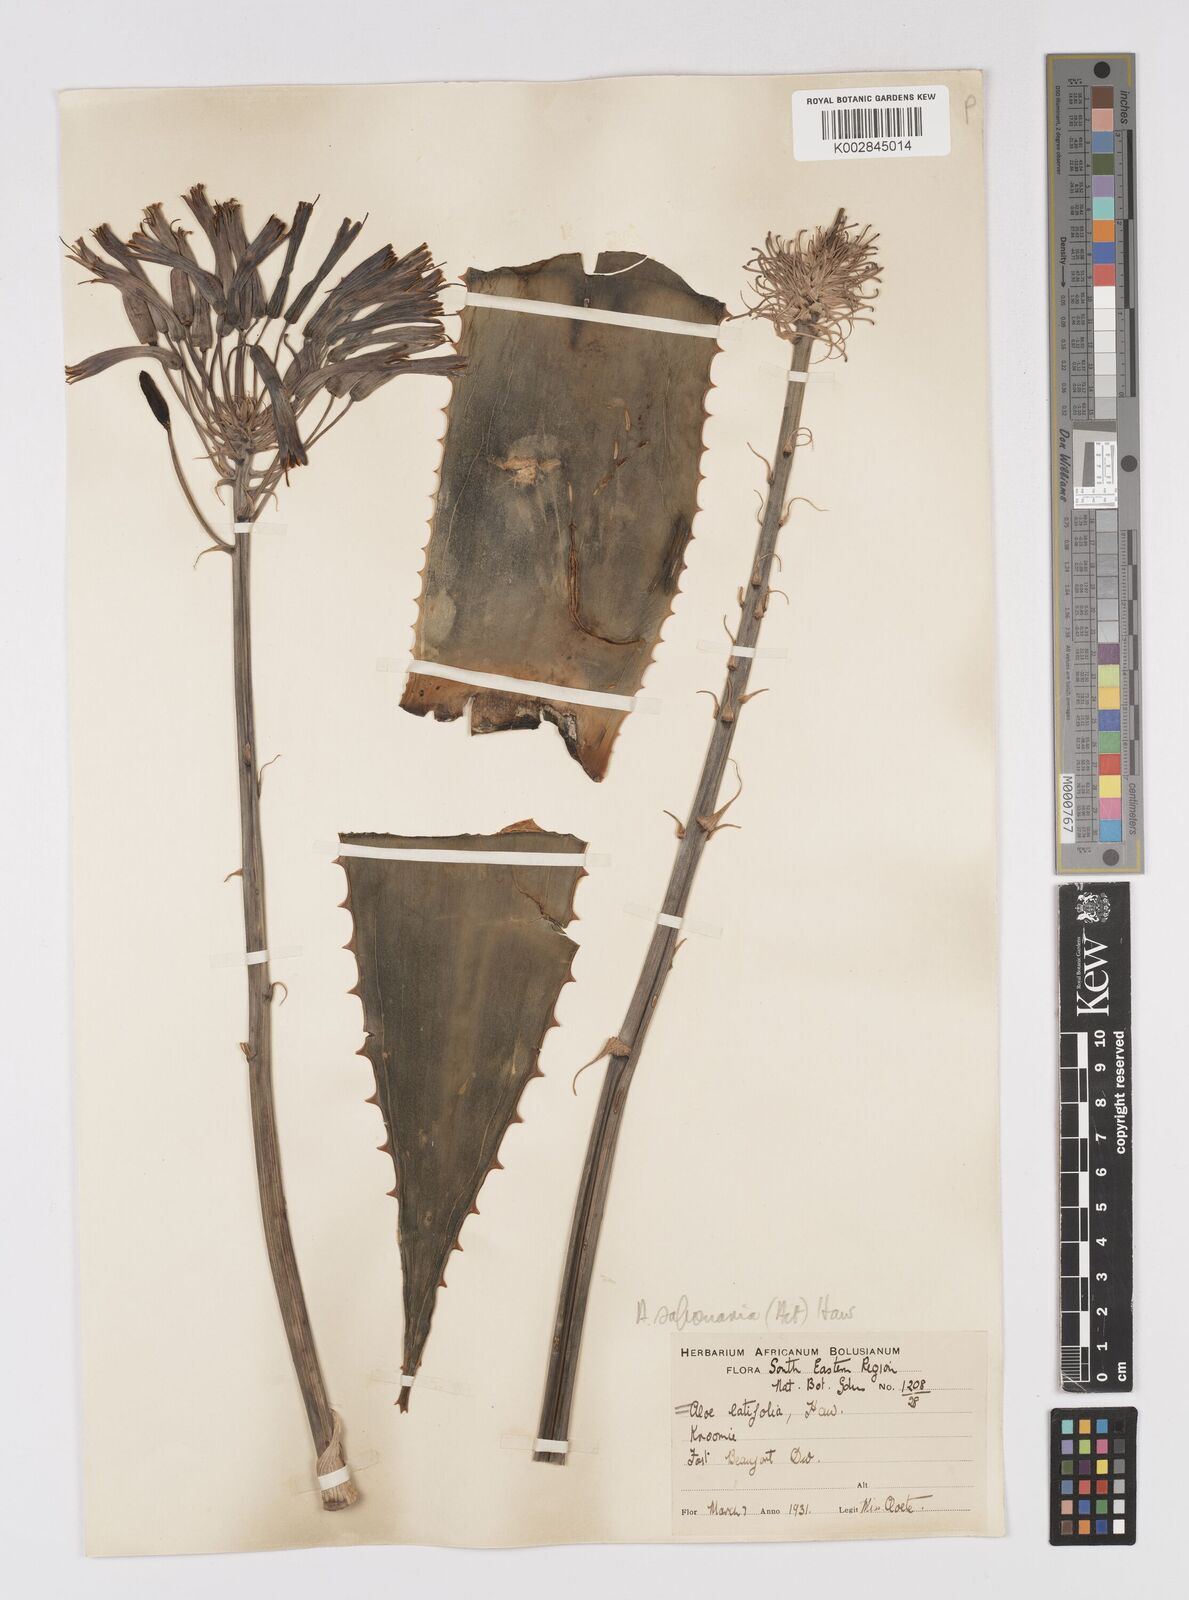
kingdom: Plantae
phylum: Tracheophyta
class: Liliopsida
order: Asparagales
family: Asphodelaceae
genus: Gasteria
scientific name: Gasteria obliqua
